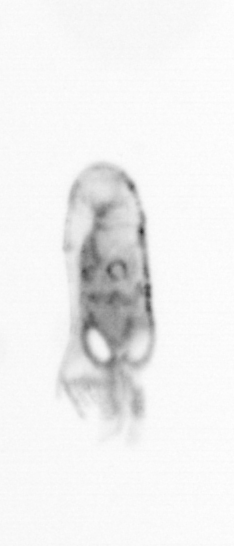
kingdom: Animalia
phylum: Arthropoda
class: Copepoda
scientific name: Copepoda
